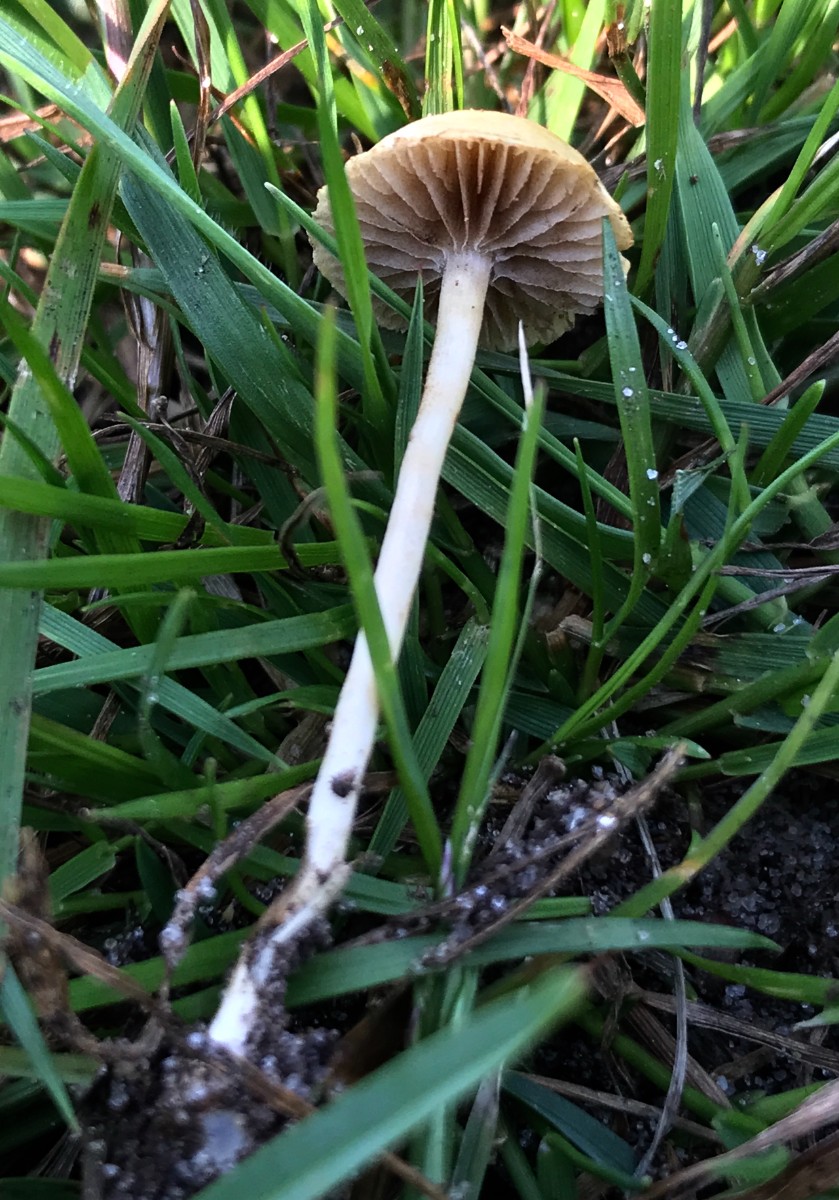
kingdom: Fungi
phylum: Basidiomycota
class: Agaricomycetes
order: Agaricales
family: Bolbitiaceae
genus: Bolbitius
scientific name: Bolbitius titubans
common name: almindelig gulhat
